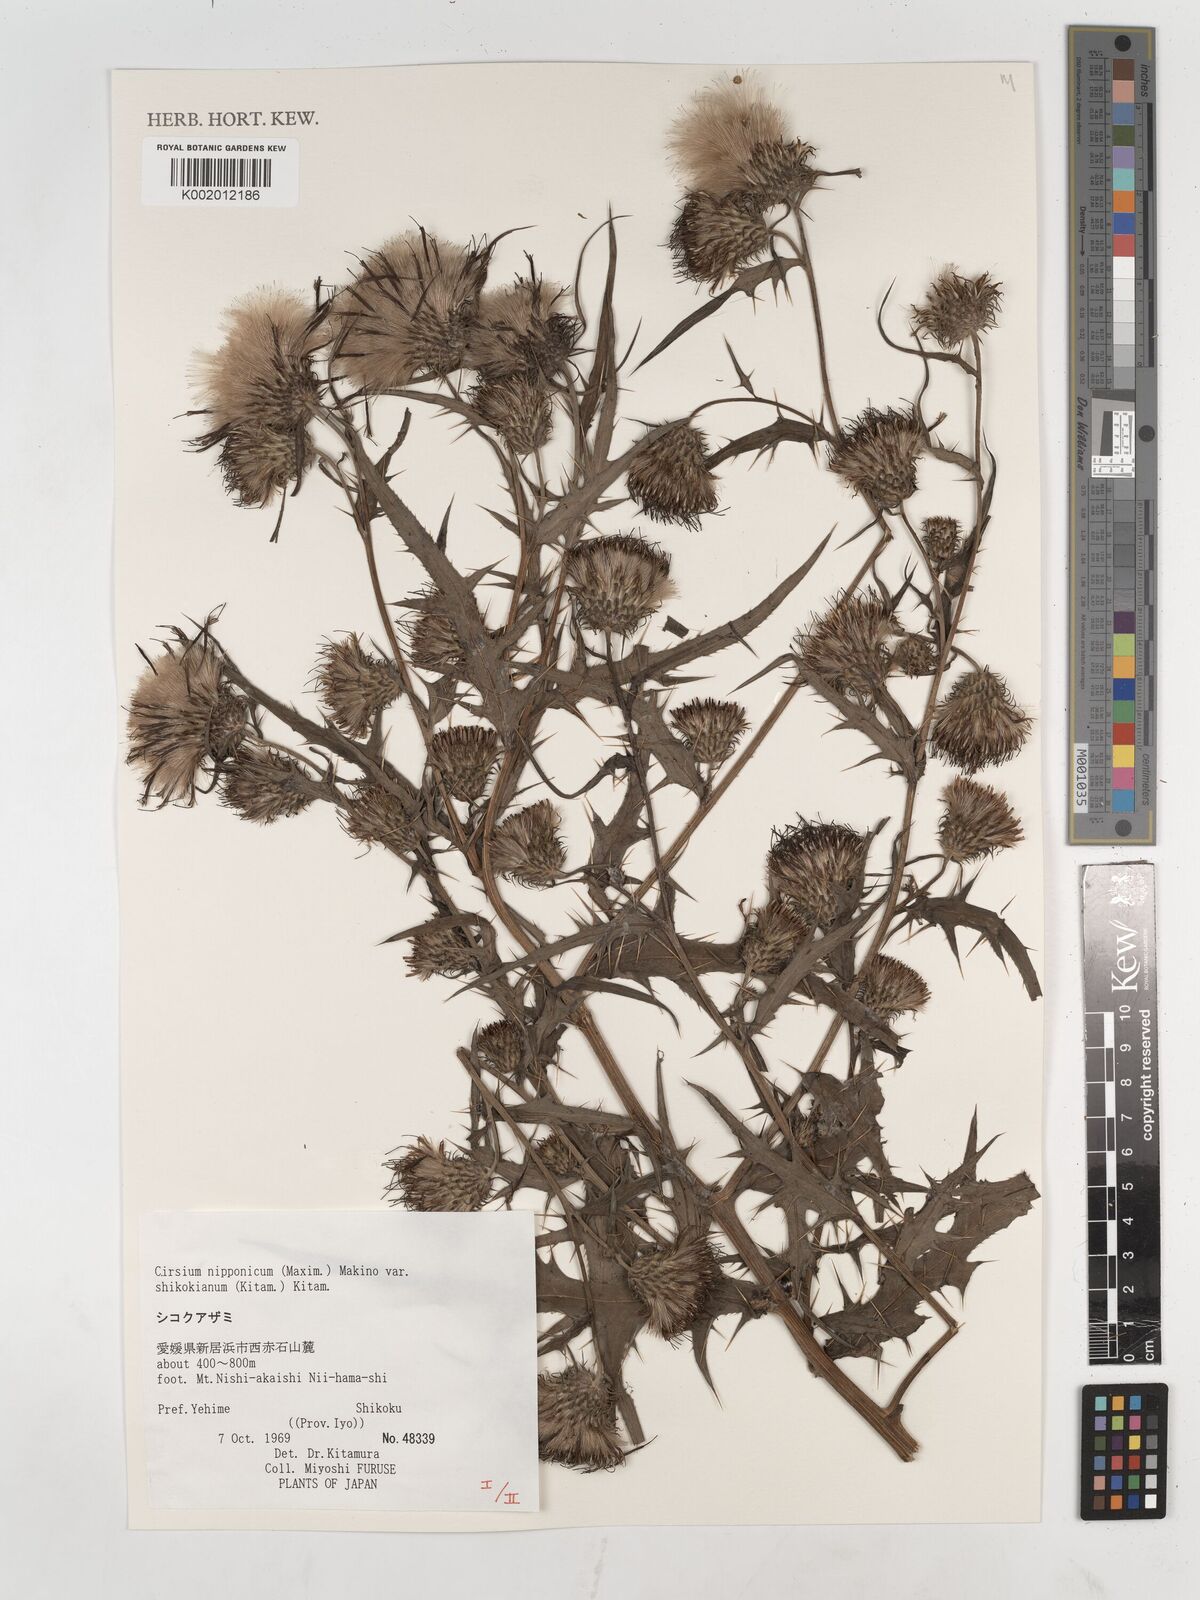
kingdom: Plantae
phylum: Tracheophyta
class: Magnoliopsida
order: Asterales
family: Asteraceae
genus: Cirsium
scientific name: Cirsium nipponicum
